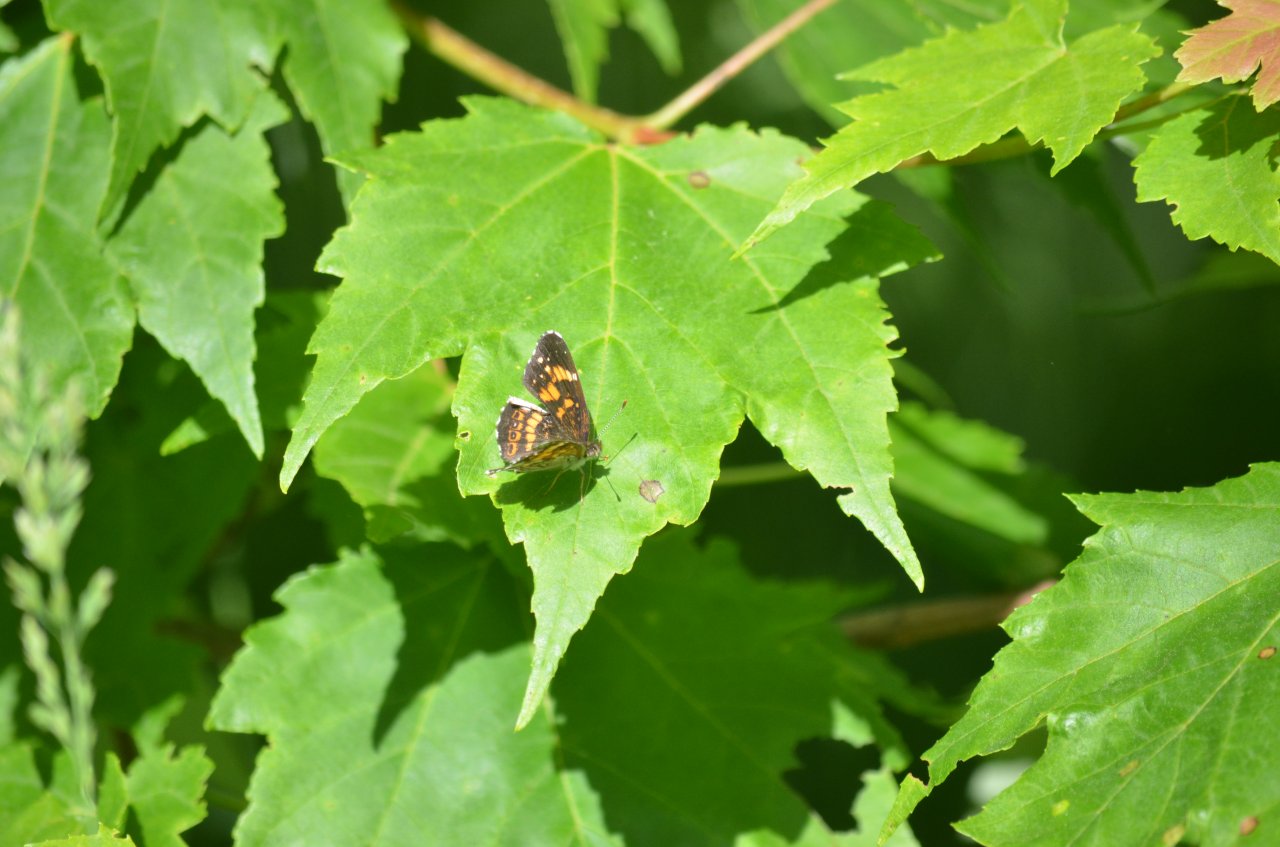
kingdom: Animalia
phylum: Arthropoda
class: Insecta
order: Lepidoptera
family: Nymphalidae
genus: Chlosyne
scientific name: Chlosyne nycteis
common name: Silvery Checkerspot
